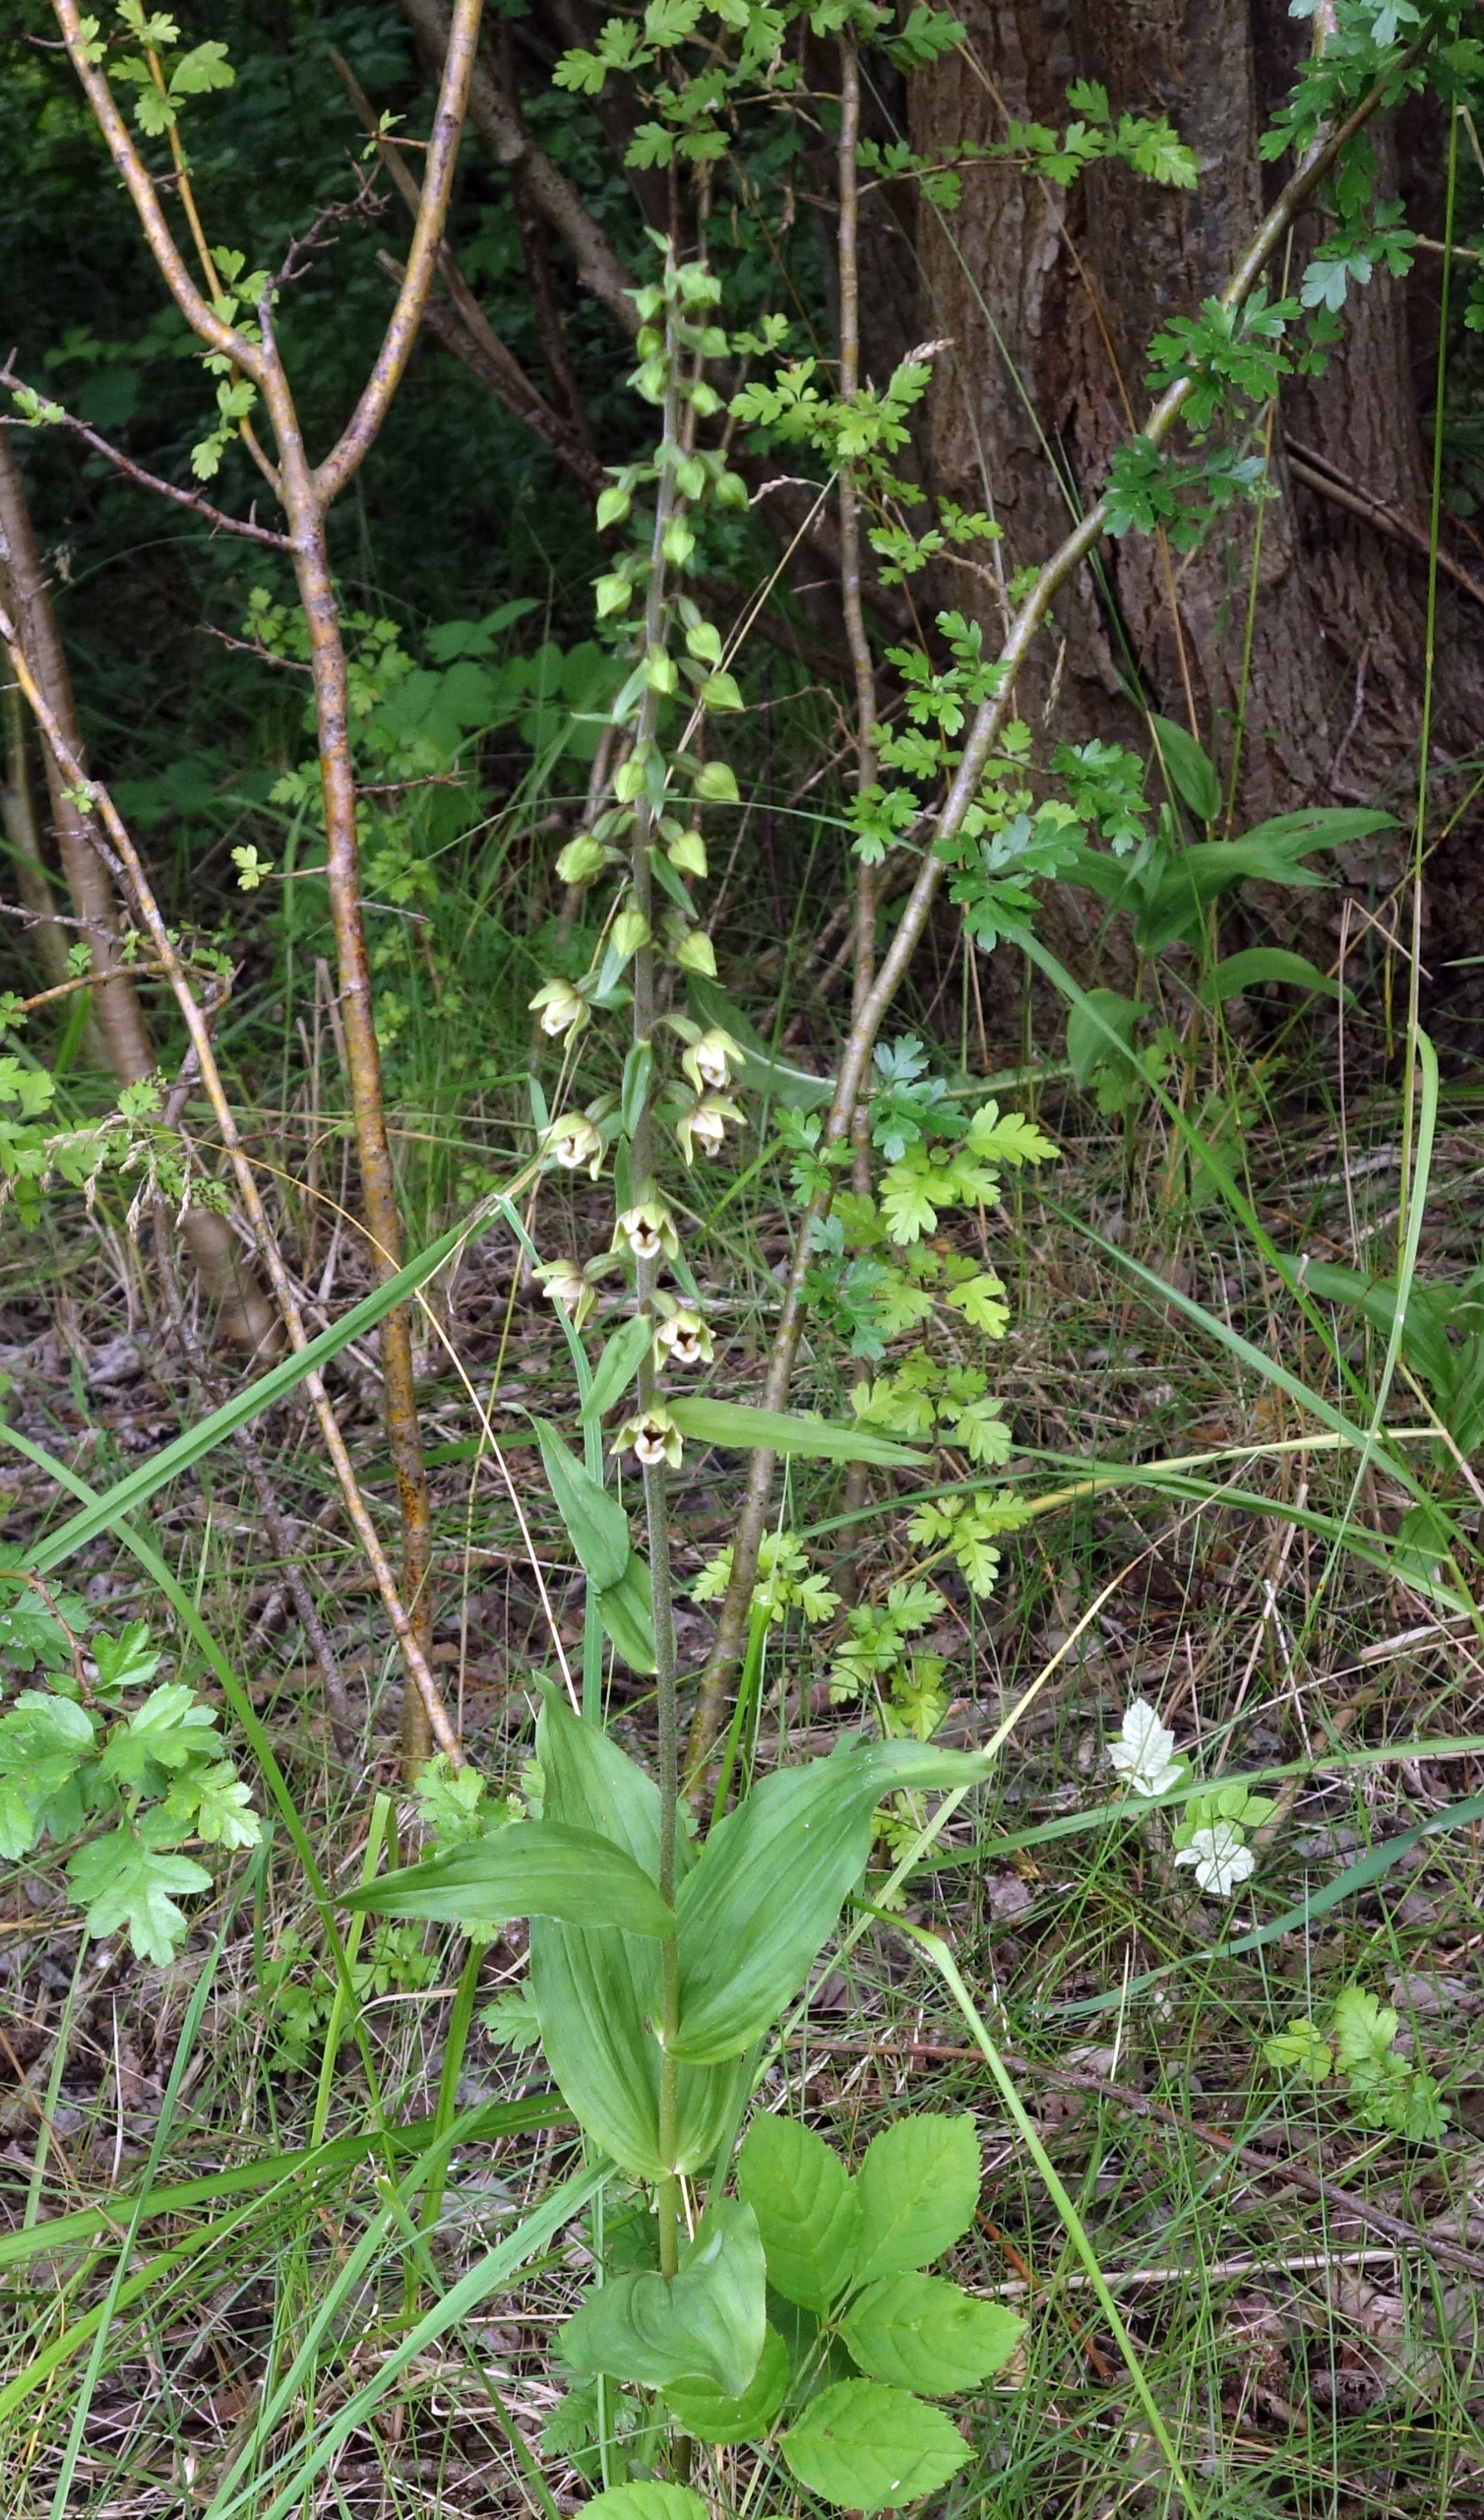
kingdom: Plantae
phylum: Tracheophyta
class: Liliopsida
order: Asparagales
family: Orchidaceae
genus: Epipactis
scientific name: Epipactis helleborine
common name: Skov-hullæbe
